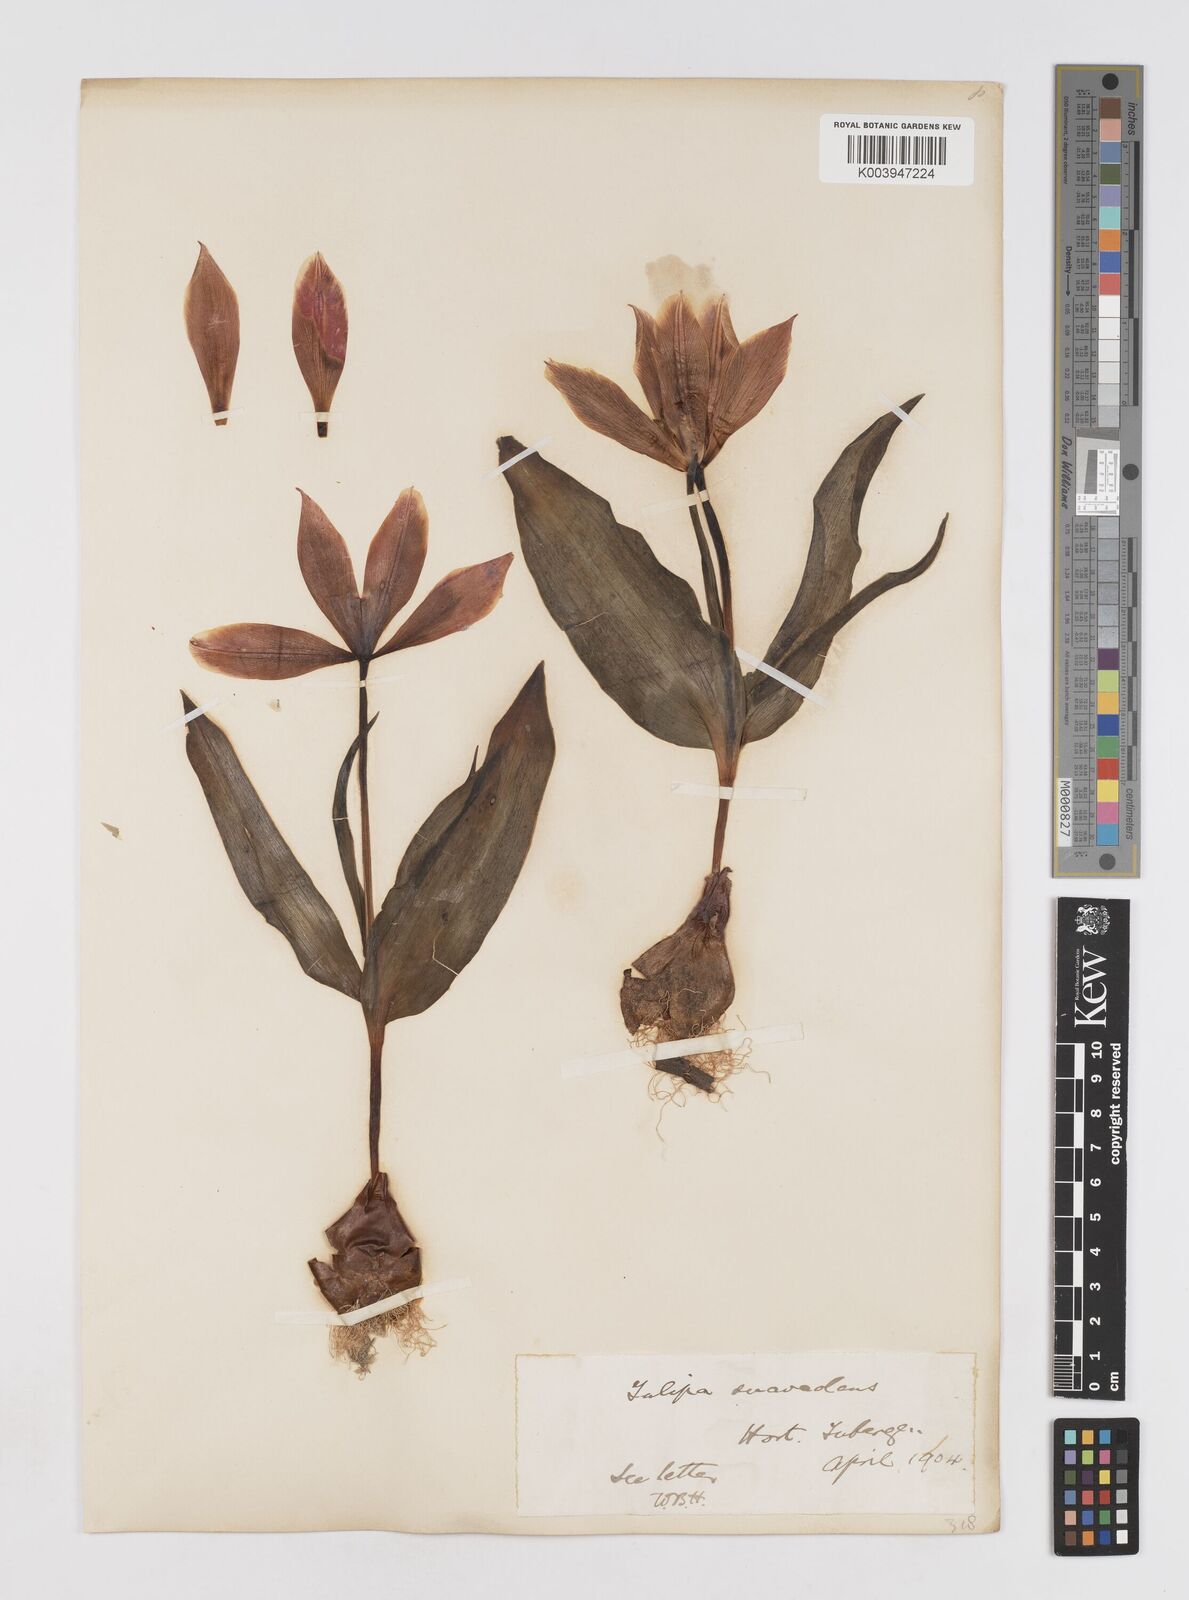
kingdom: Plantae
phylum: Tracheophyta
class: Liliopsida
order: Liliales
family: Liliaceae
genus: Tulipa
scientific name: Tulipa suaveolens
